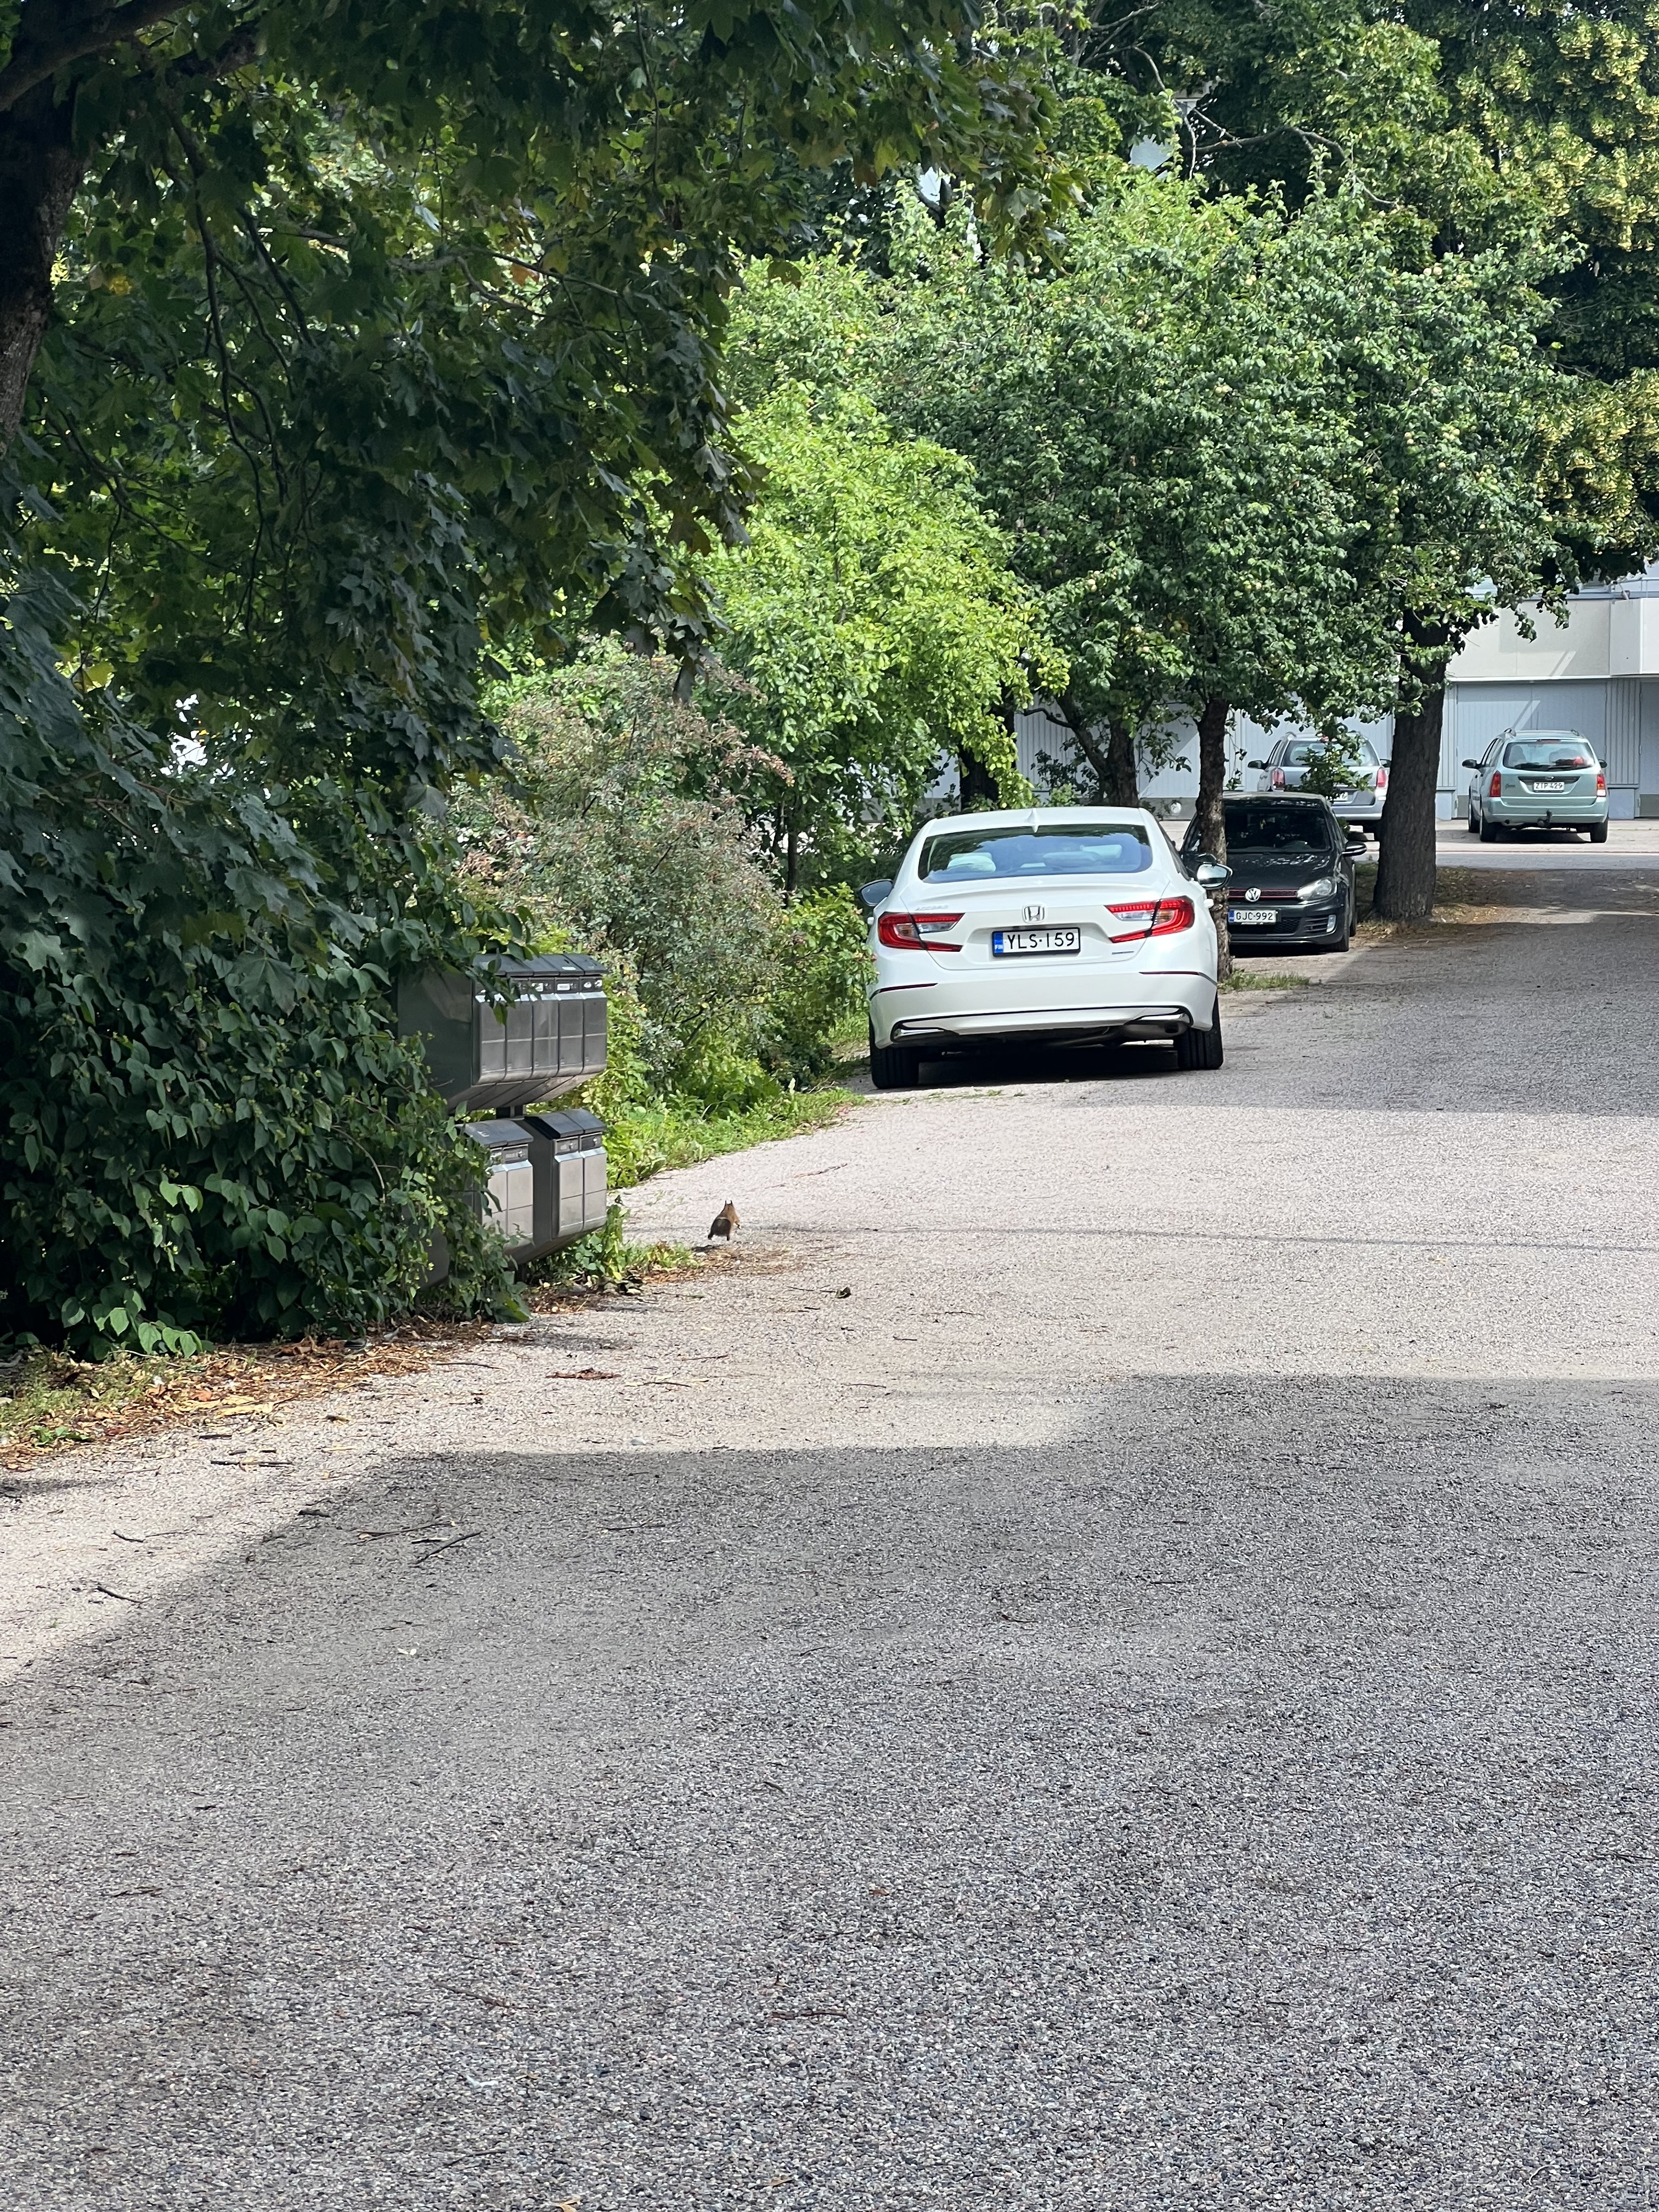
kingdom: Animalia
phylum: Chordata
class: Mammalia
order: Rodentia
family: Sciuridae
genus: Sciurus
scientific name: Sciurus vulgaris
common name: Eurasian red squirrel
